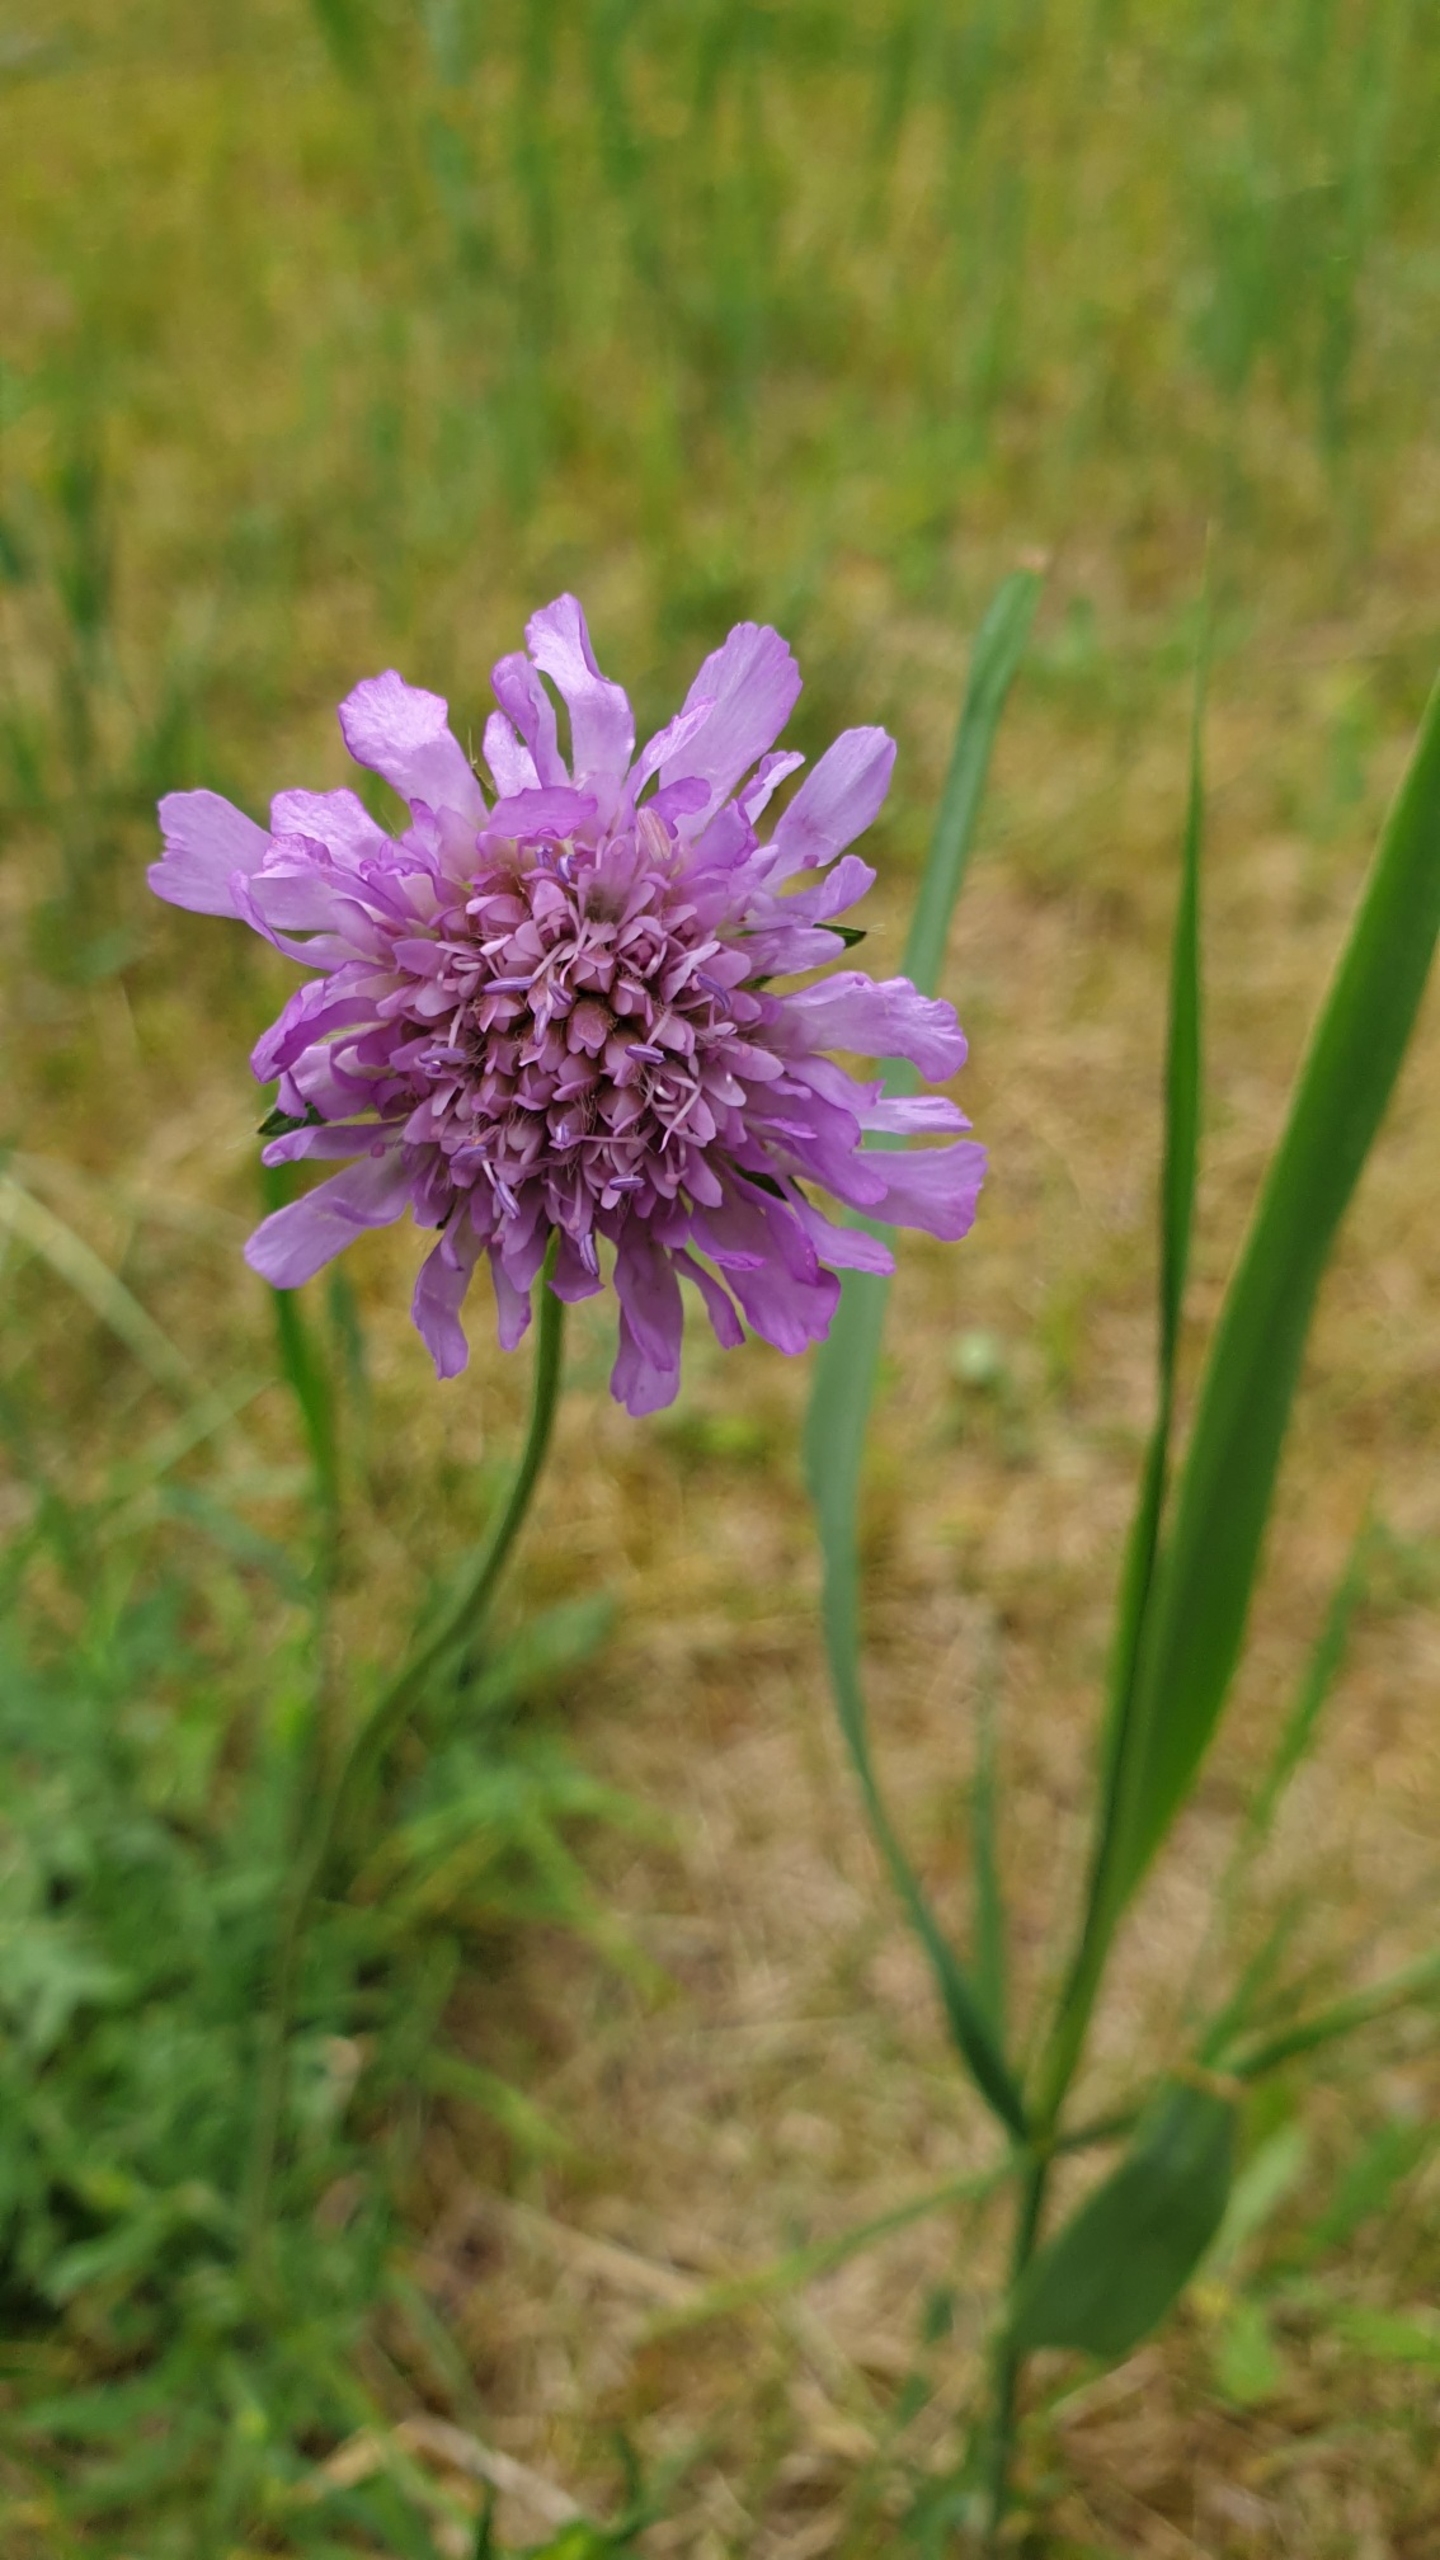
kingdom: Plantae
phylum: Tracheophyta
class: Magnoliopsida
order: Dipsacales
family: Caprifoliaceae
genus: Knautia
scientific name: Knautia arvensis
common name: Blåhat
